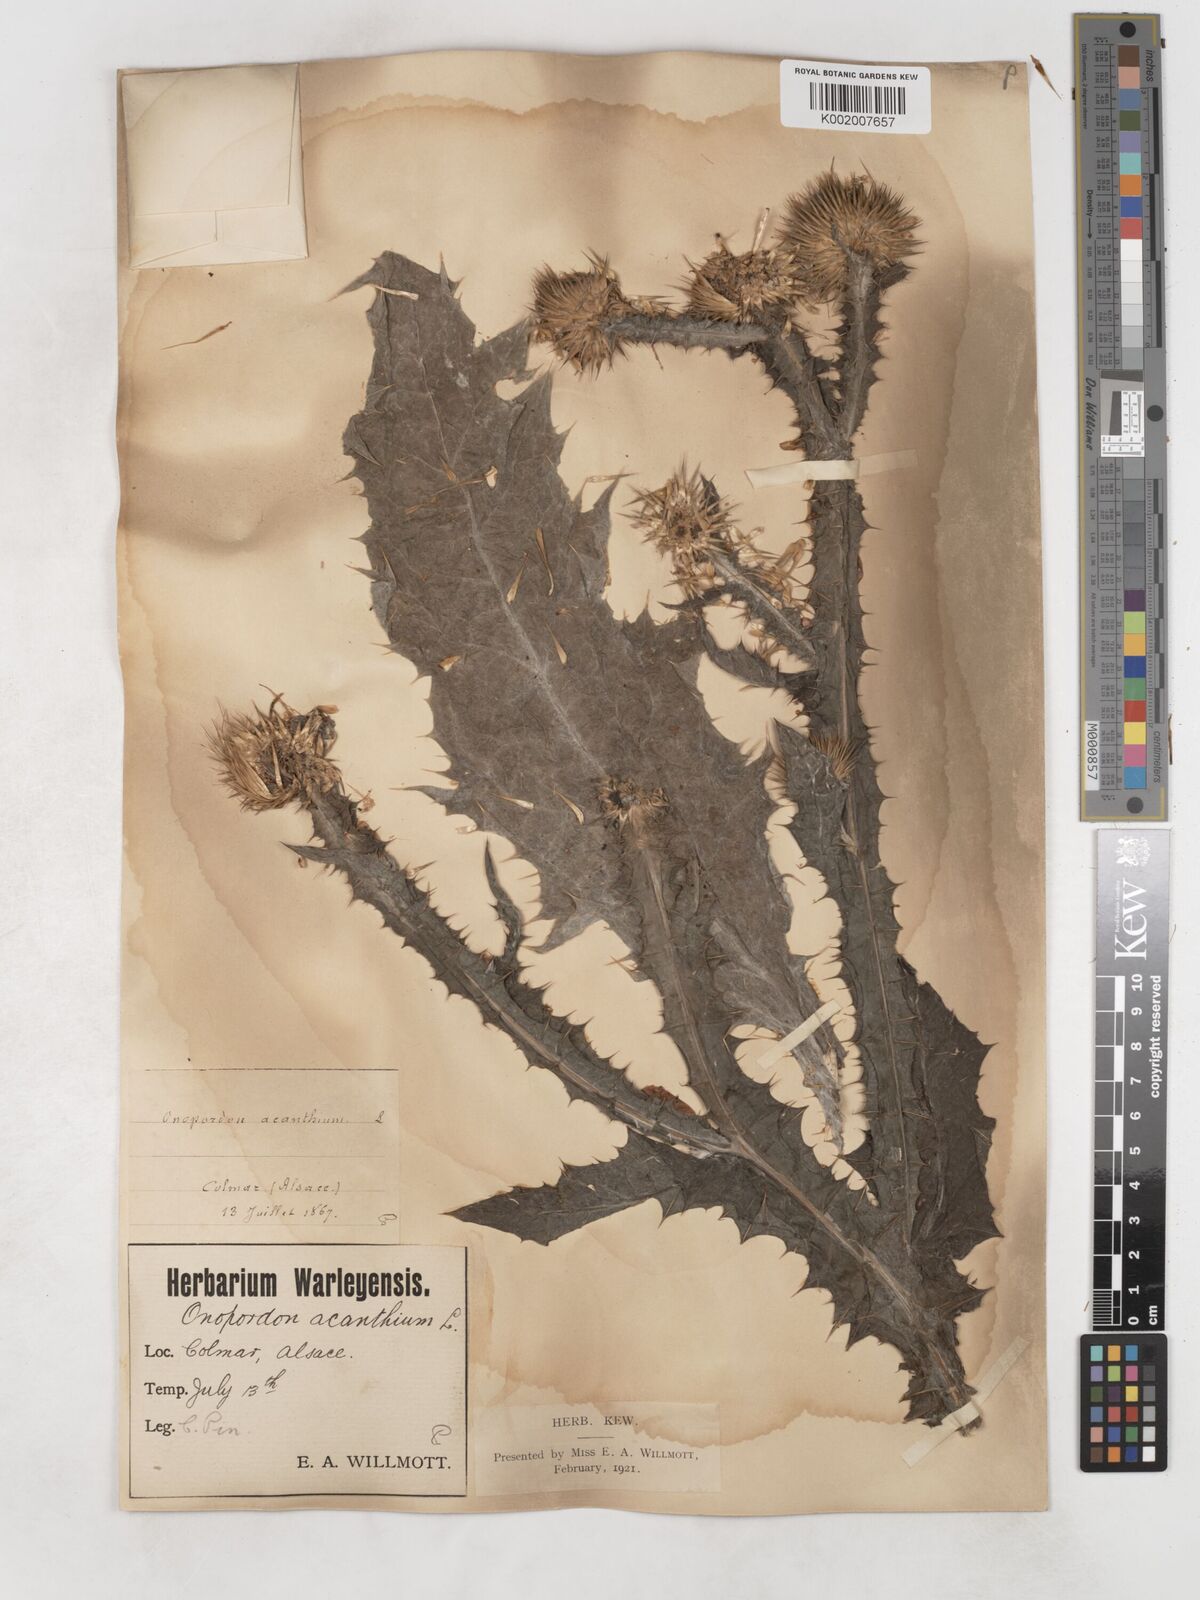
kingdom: Plantae
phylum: Tracheophyta
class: Magnoliopsida
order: Asterales
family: Asteraceae
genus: Onopordum
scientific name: Onopordum acanthium
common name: Scotch thistle
